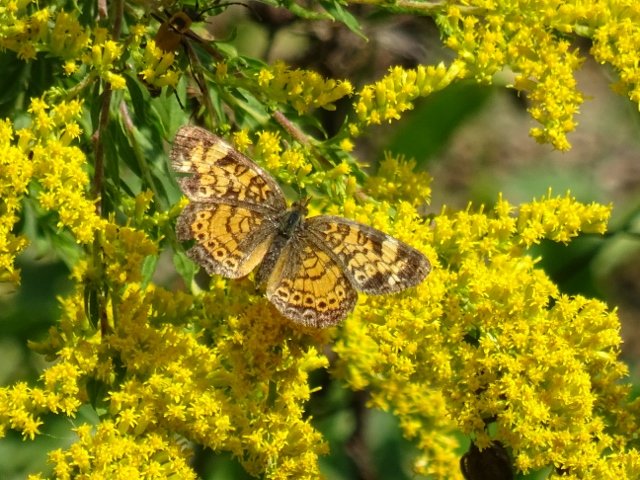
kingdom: Animalia
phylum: Arthropoda
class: Insecta
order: Lepidoptera
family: Nymphalidae
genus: Phyciodes
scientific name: Phyciodes tharos
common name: Pearl Crescent
